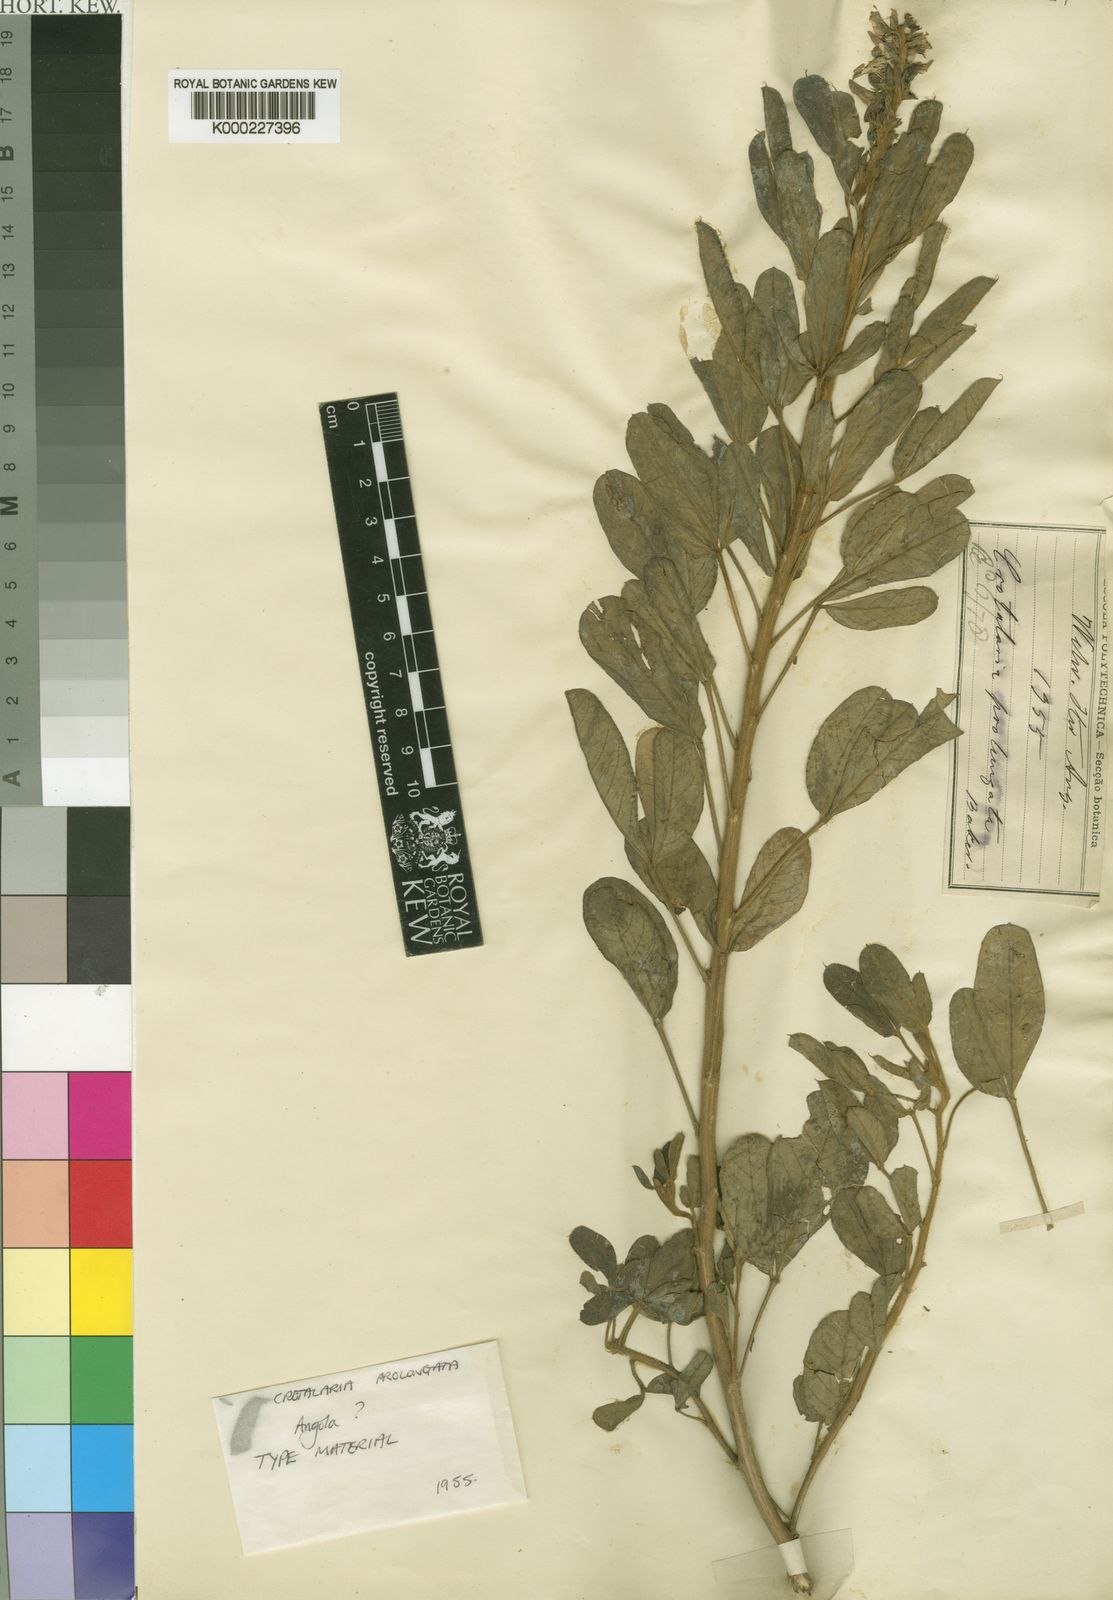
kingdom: Plantae
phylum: Tracheophyta
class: Magnoliopsida
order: Fabales
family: Fabaceae
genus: Crotalaria
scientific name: Crotalaria prolongata
